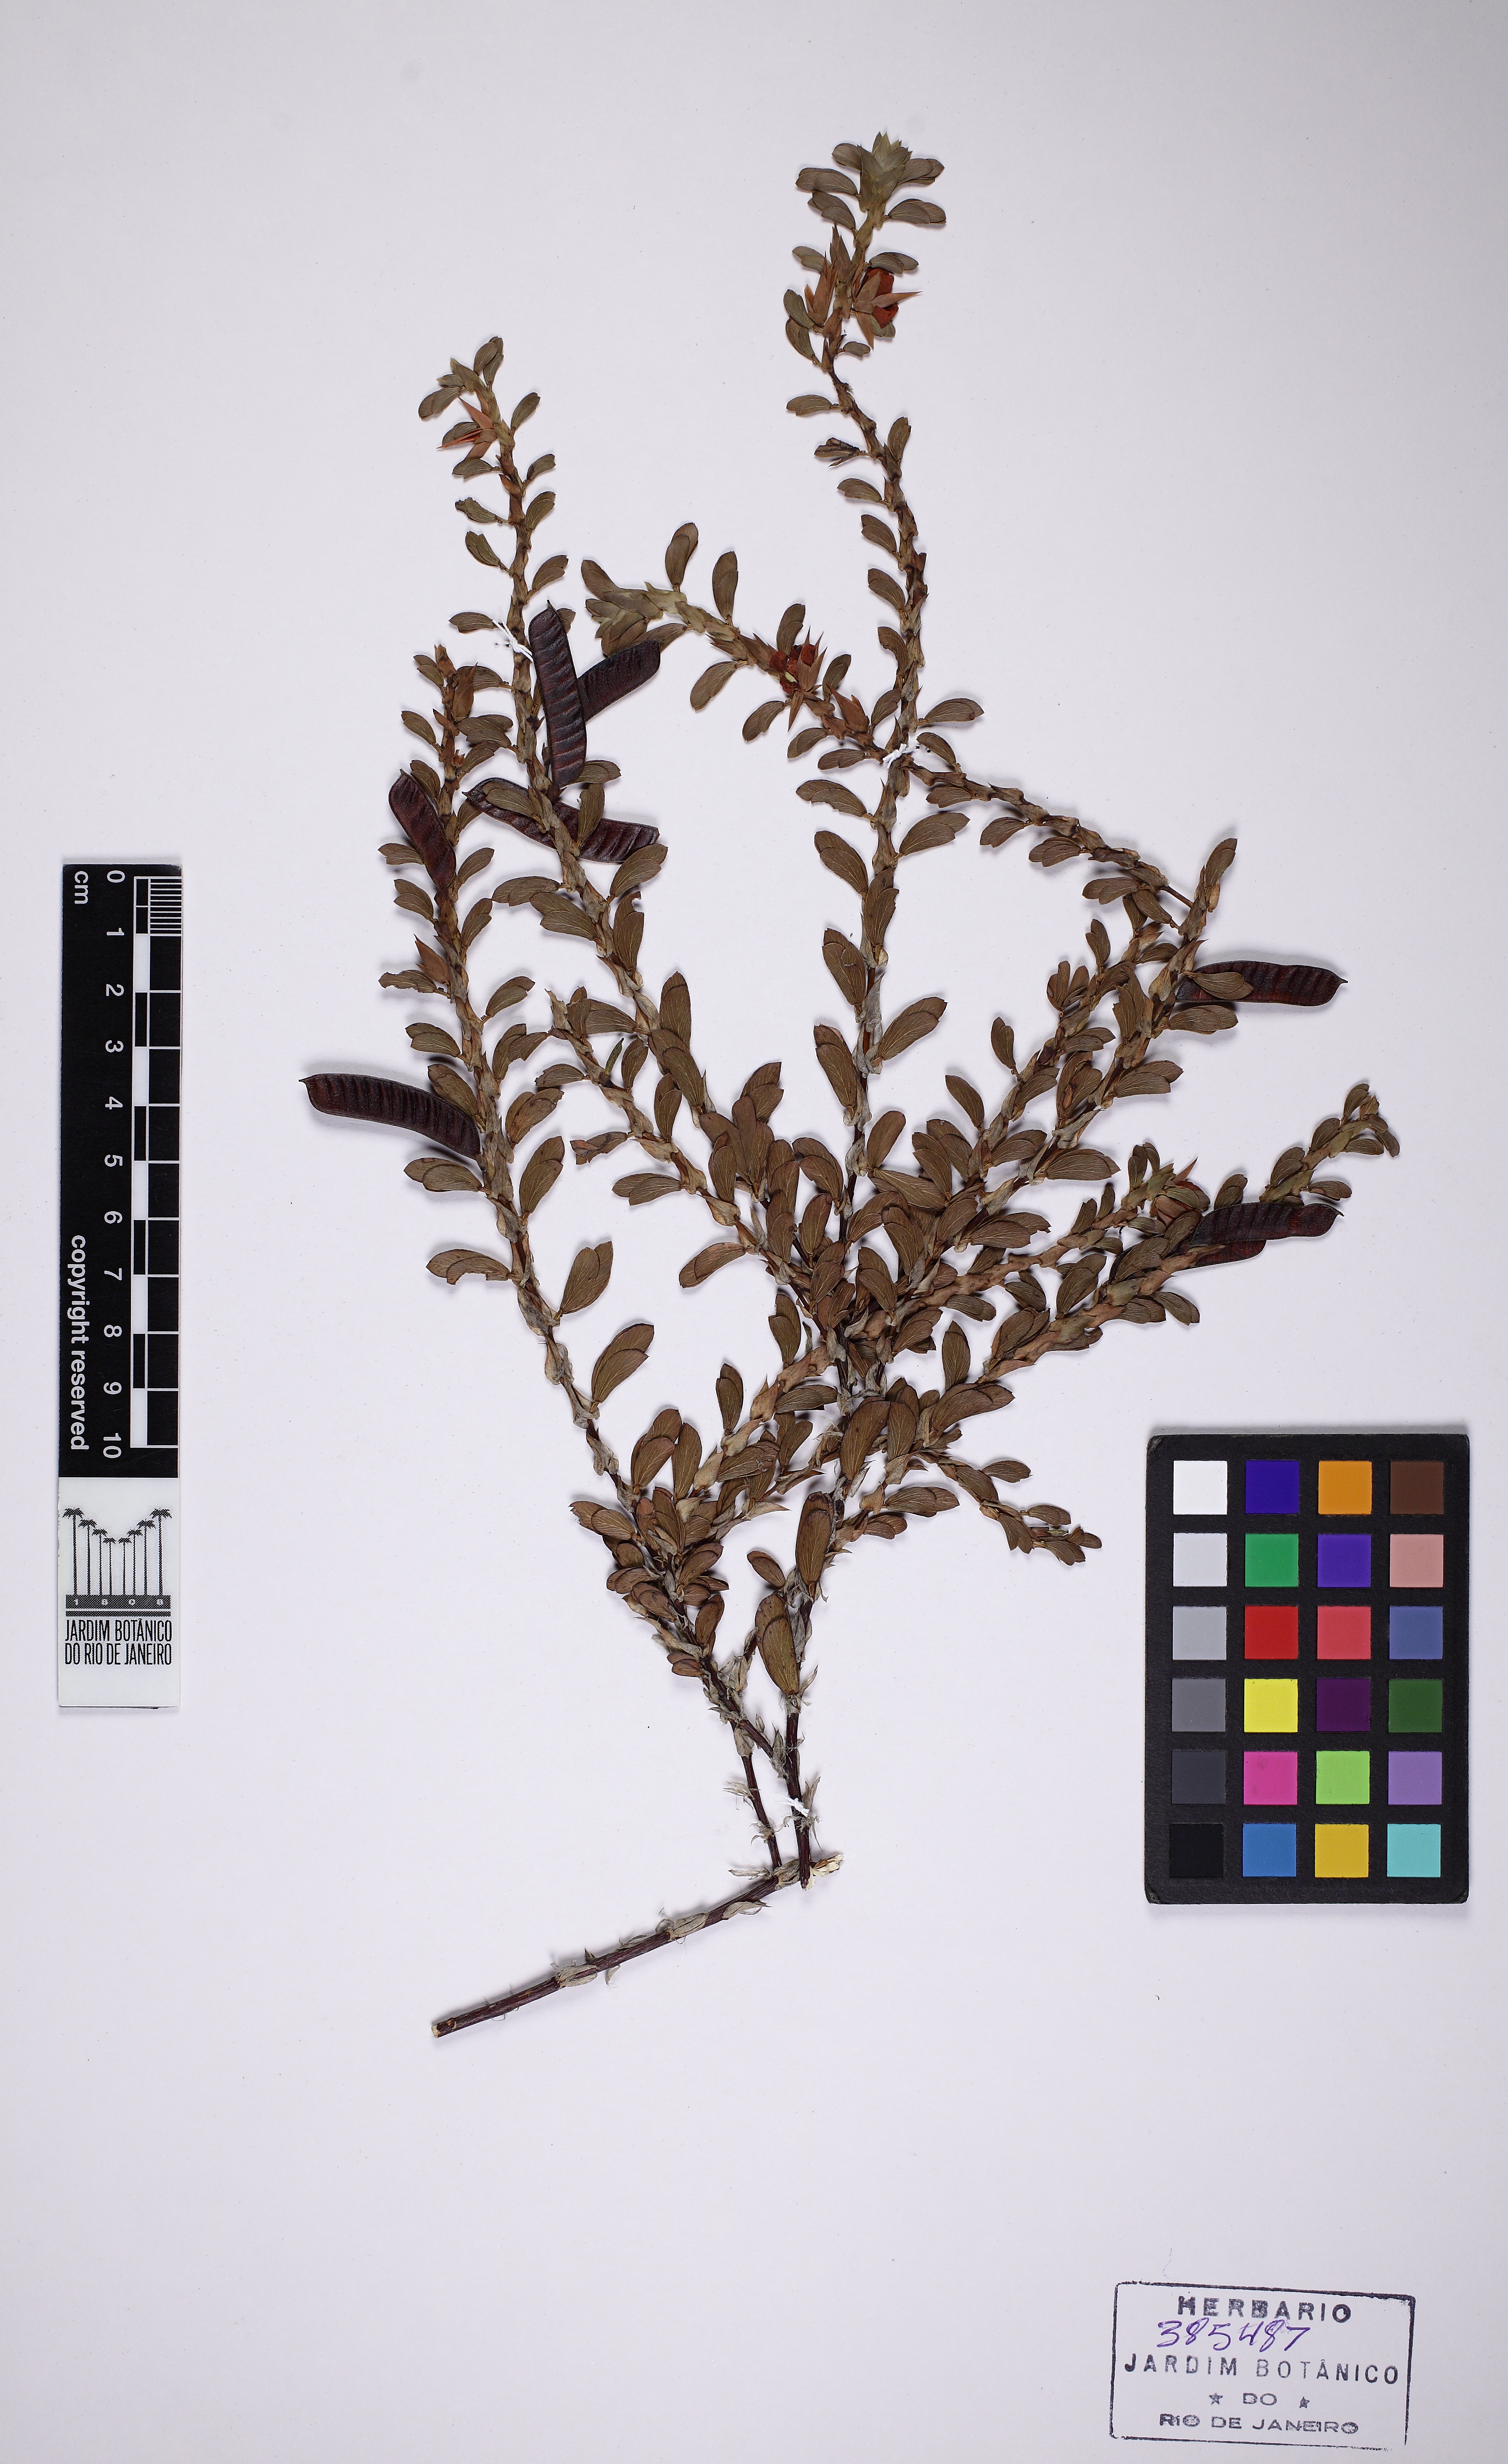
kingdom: Plantae
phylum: Tracheophyta
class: Magnoliopsida
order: Fabales
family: Fabaceae
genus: Chamaecrista
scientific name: Chamaecrista
